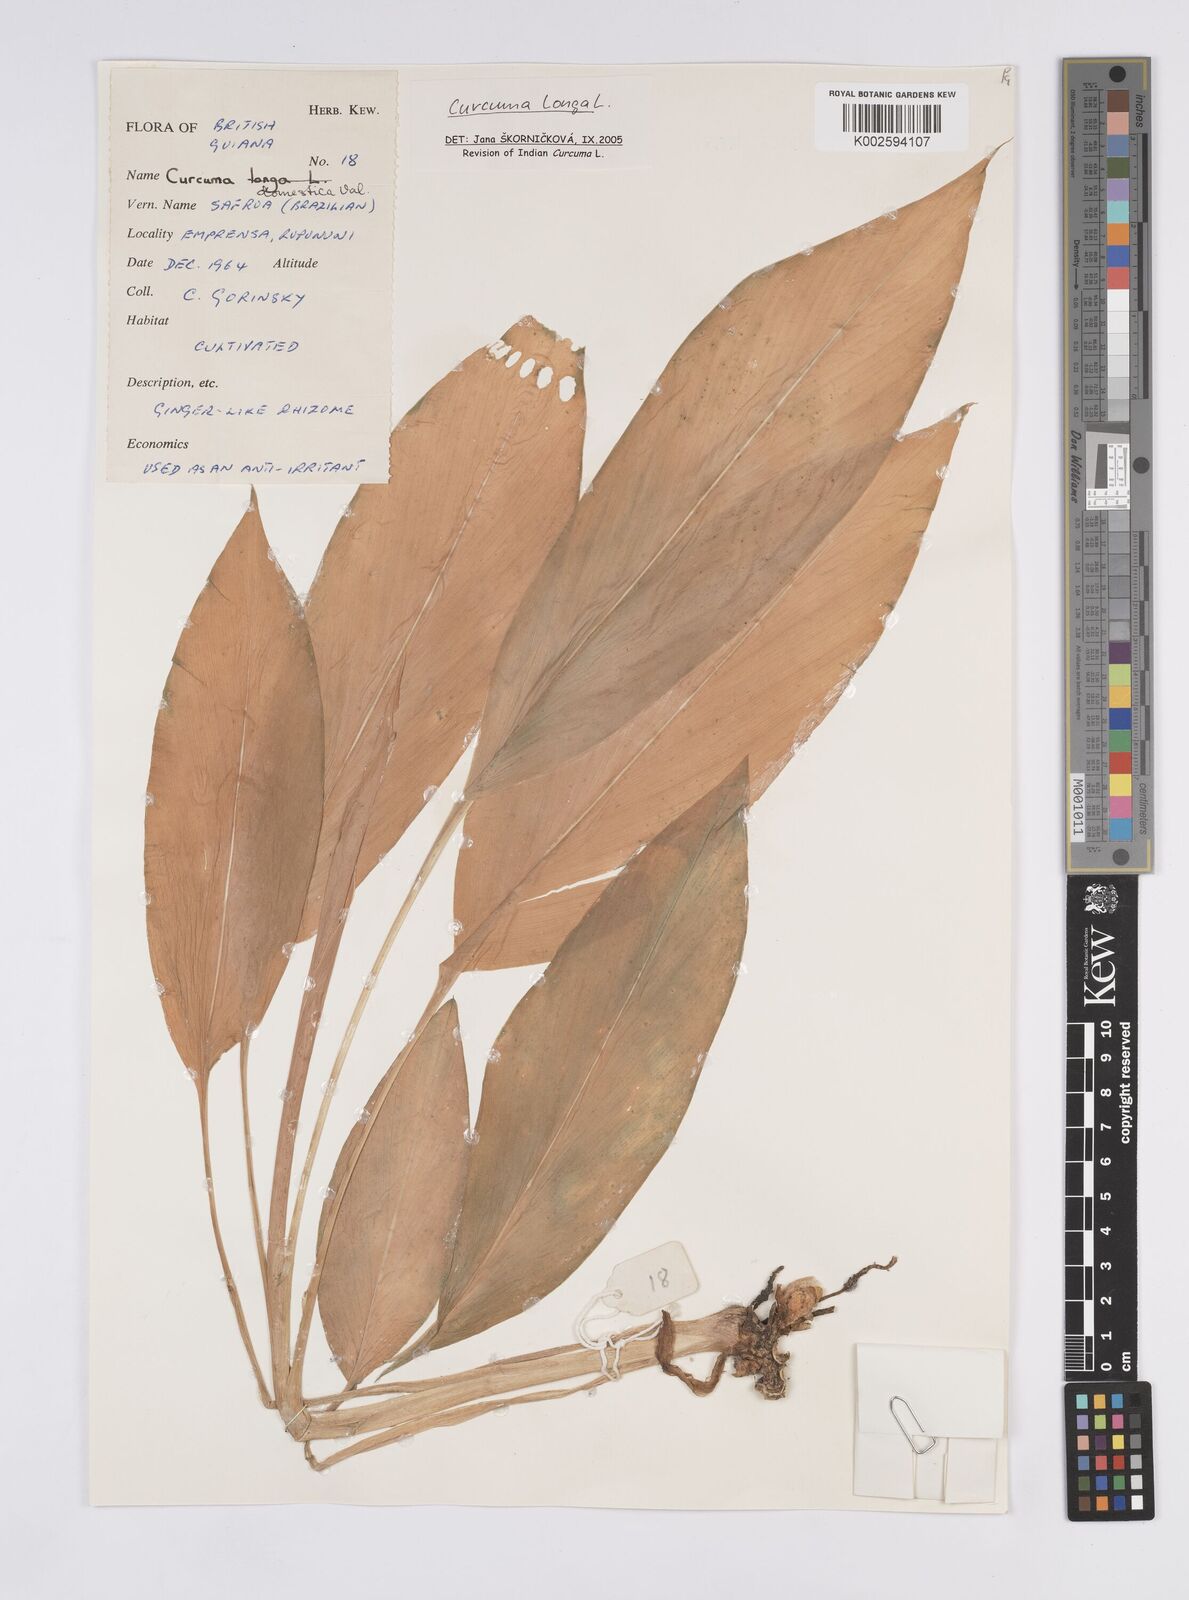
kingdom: Plantae
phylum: Tracheophyta
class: Liliopsida
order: Zingiberales
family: Zingiberaceae
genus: Curcuma
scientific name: Curcuma longa
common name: Turmeric
